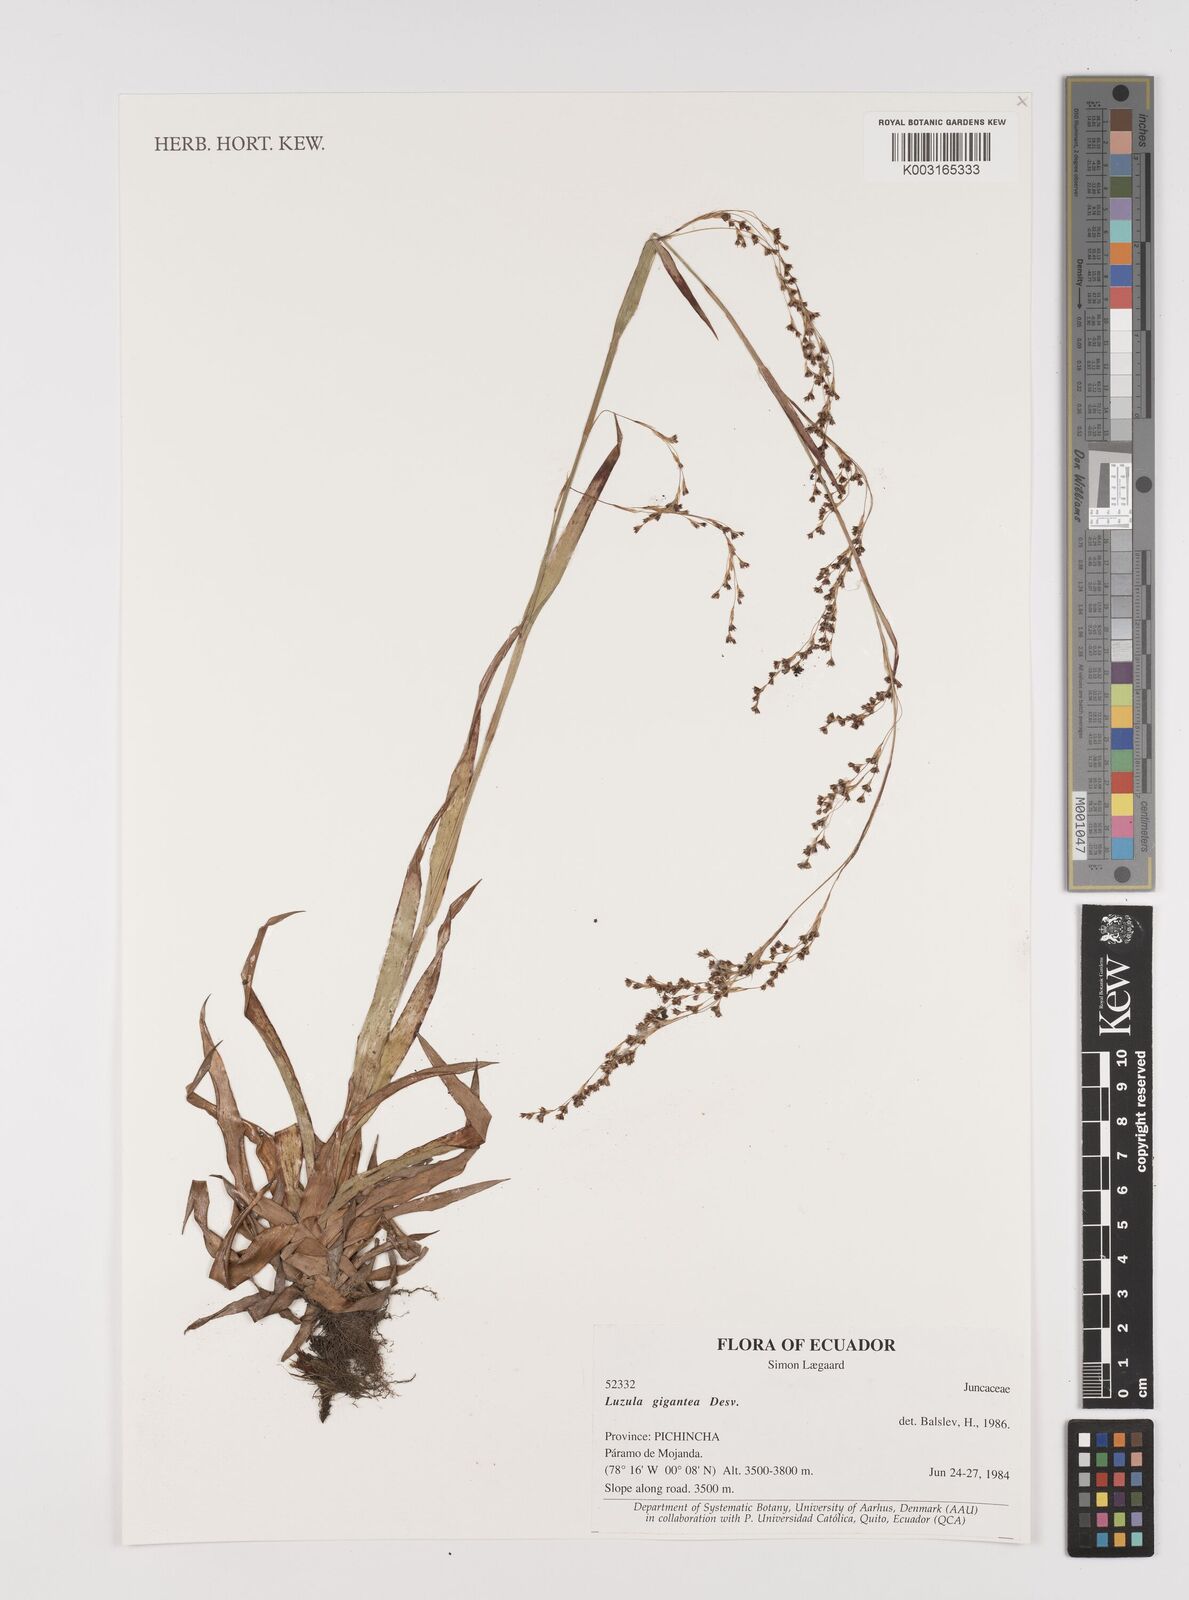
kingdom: Plantae
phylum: Tracheophyta
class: Liliopsida
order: Poales
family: Juncaceae
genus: Luzula
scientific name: Luzula gigantea
